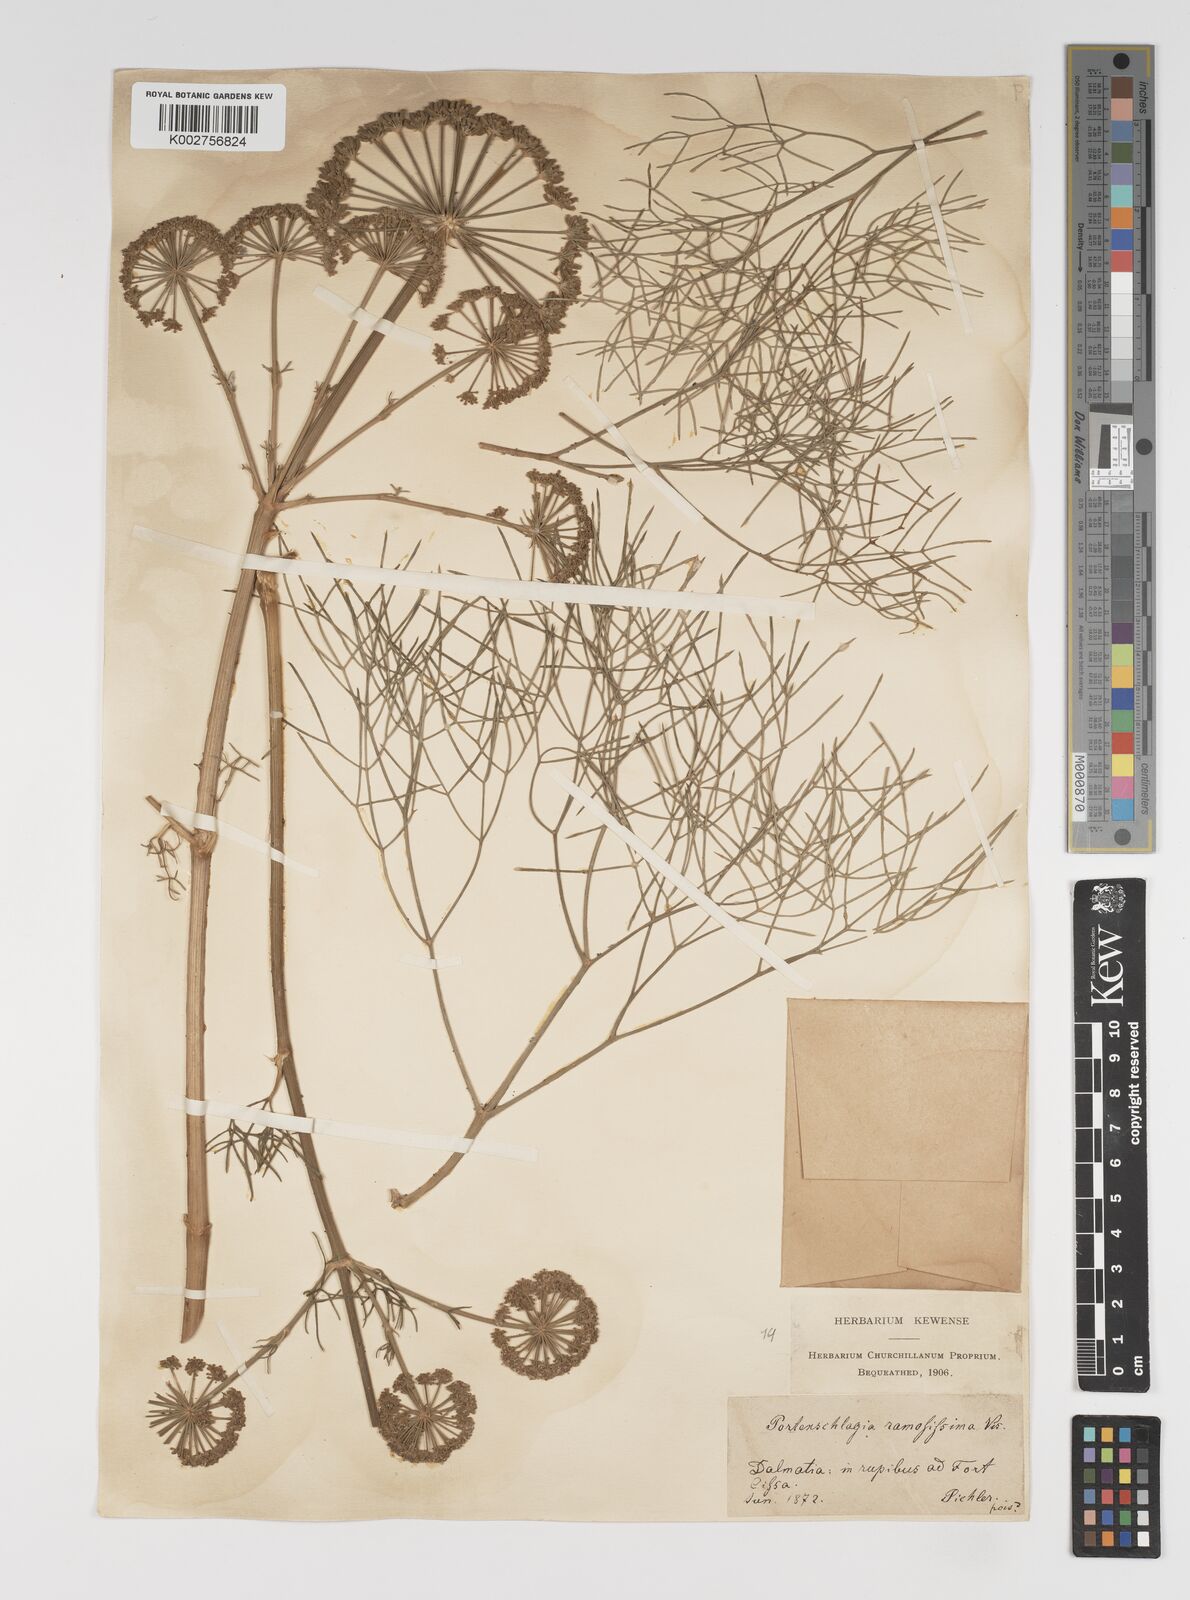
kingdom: Plantae
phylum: Tracheophyta
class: Magnoliopsida
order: Apiales
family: Apiaceae
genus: Athamanta
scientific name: Athamanta ramosissima
